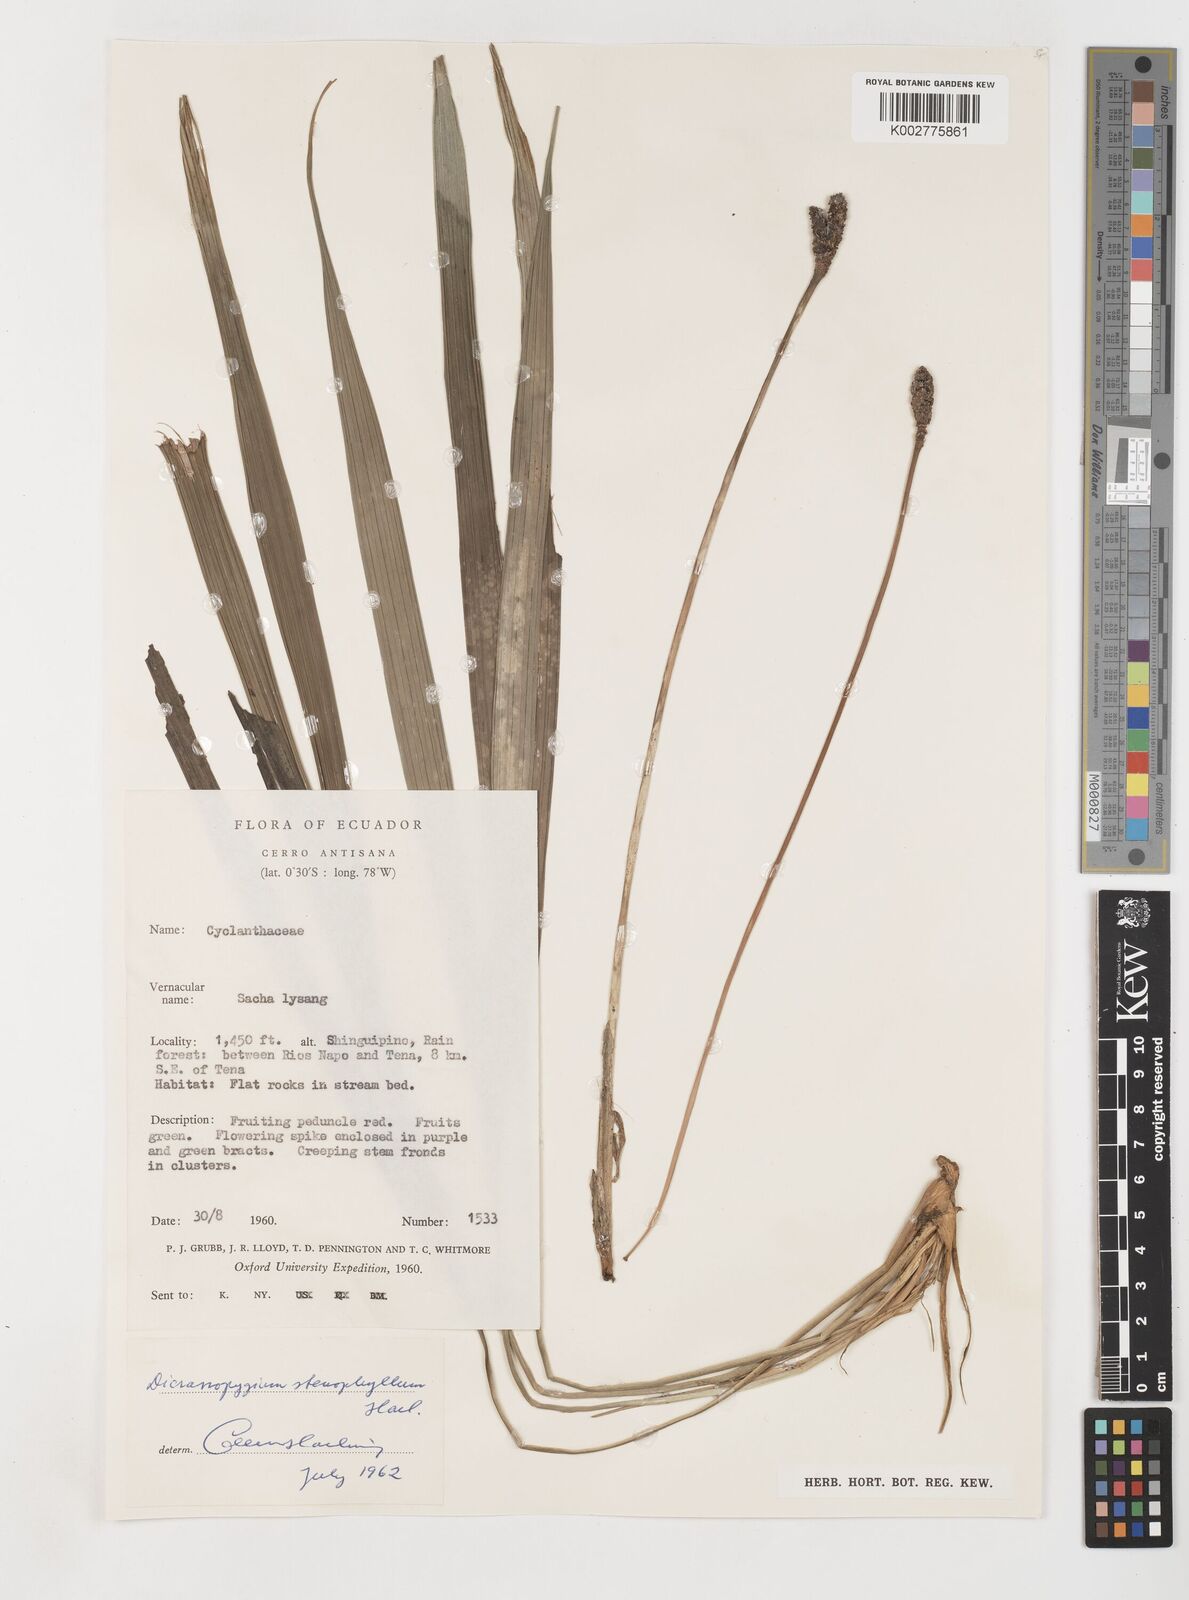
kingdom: Plantae
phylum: Tracheophyta
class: Liliopsida
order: Pandanales
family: Cyclanthaceae
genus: Dicranopygium
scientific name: Dicranopygium stenophyllum
